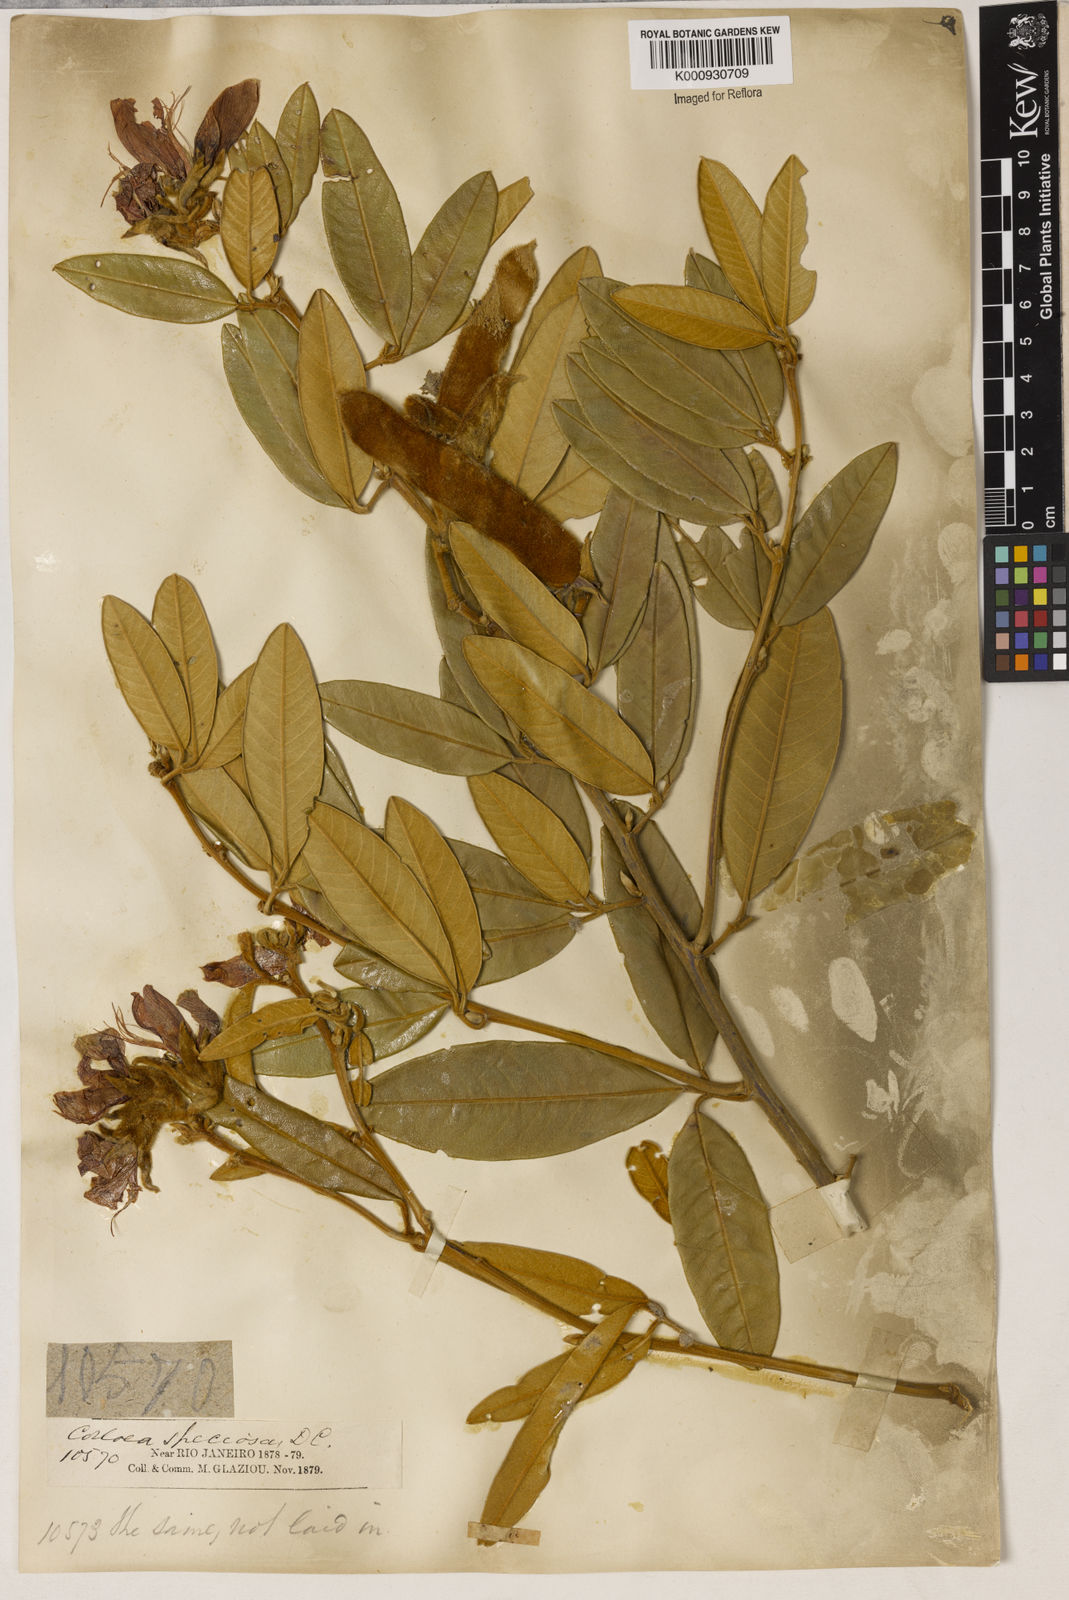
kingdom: Plantae
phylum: Tracheophyta
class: Magnoliopsida
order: Lamiales
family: Lamiaceae
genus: Coleus
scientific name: Coleus barbatus
